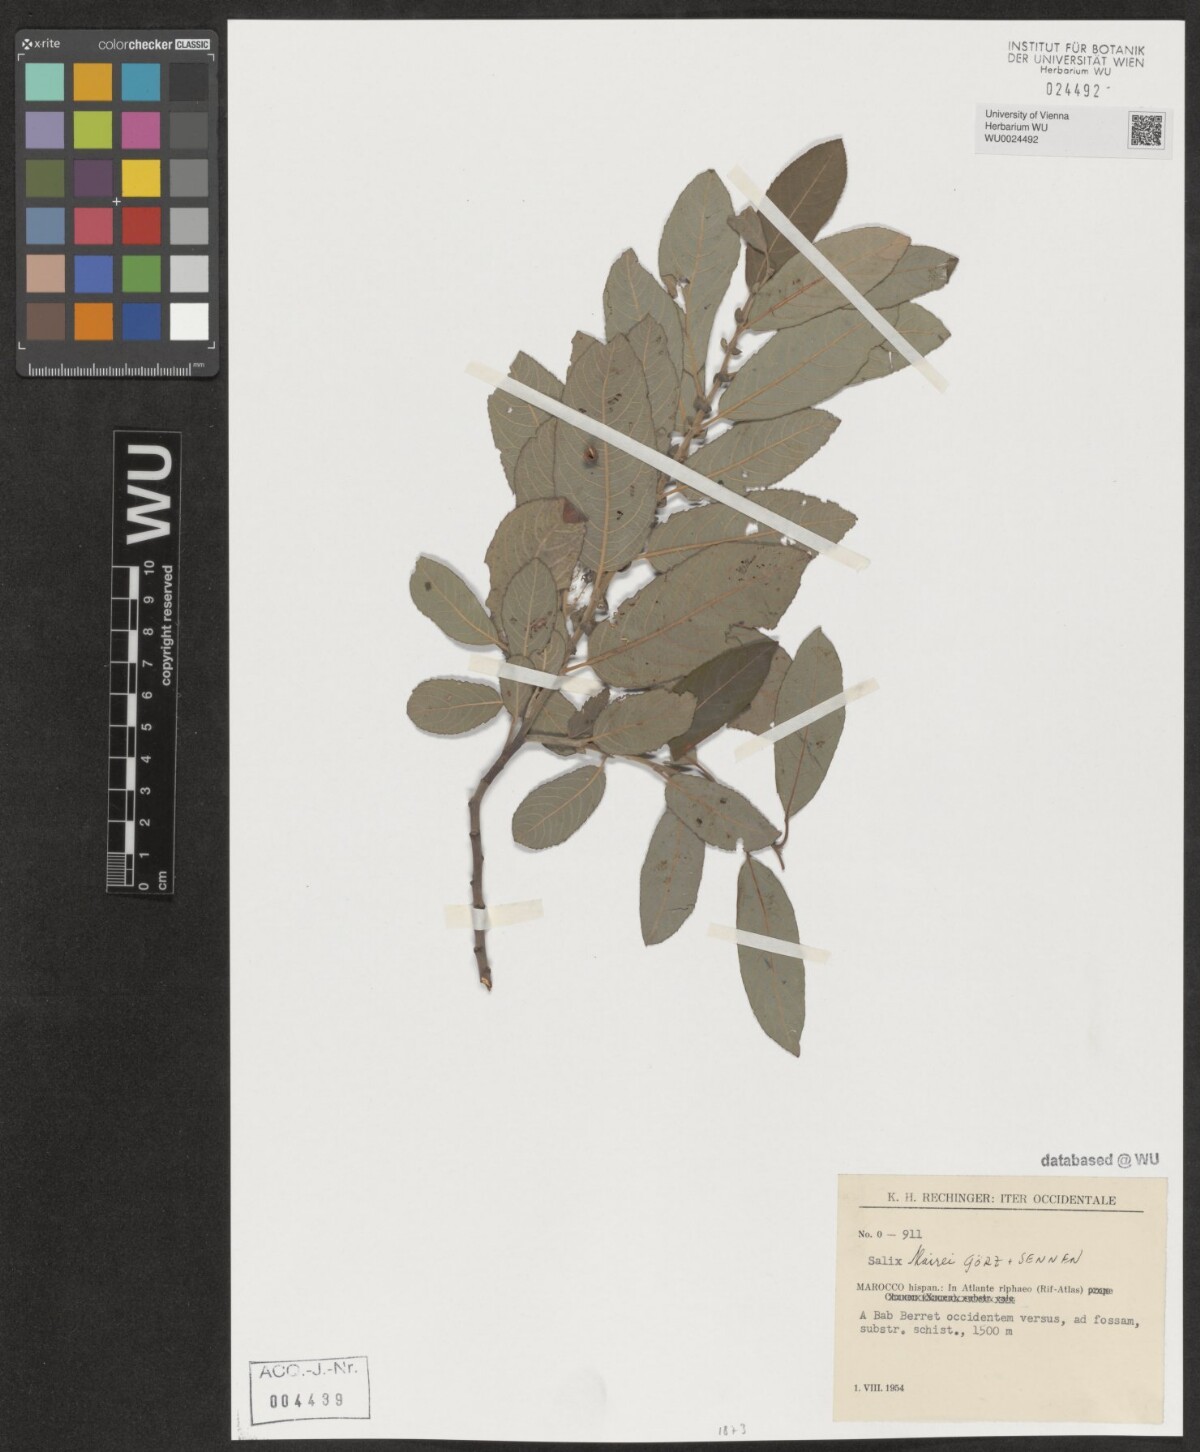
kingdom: Plantae
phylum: Tracheophyta
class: Magnoliopsida
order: Malpighiales
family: Salicaceae
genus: Salix
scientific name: Salix mairei
